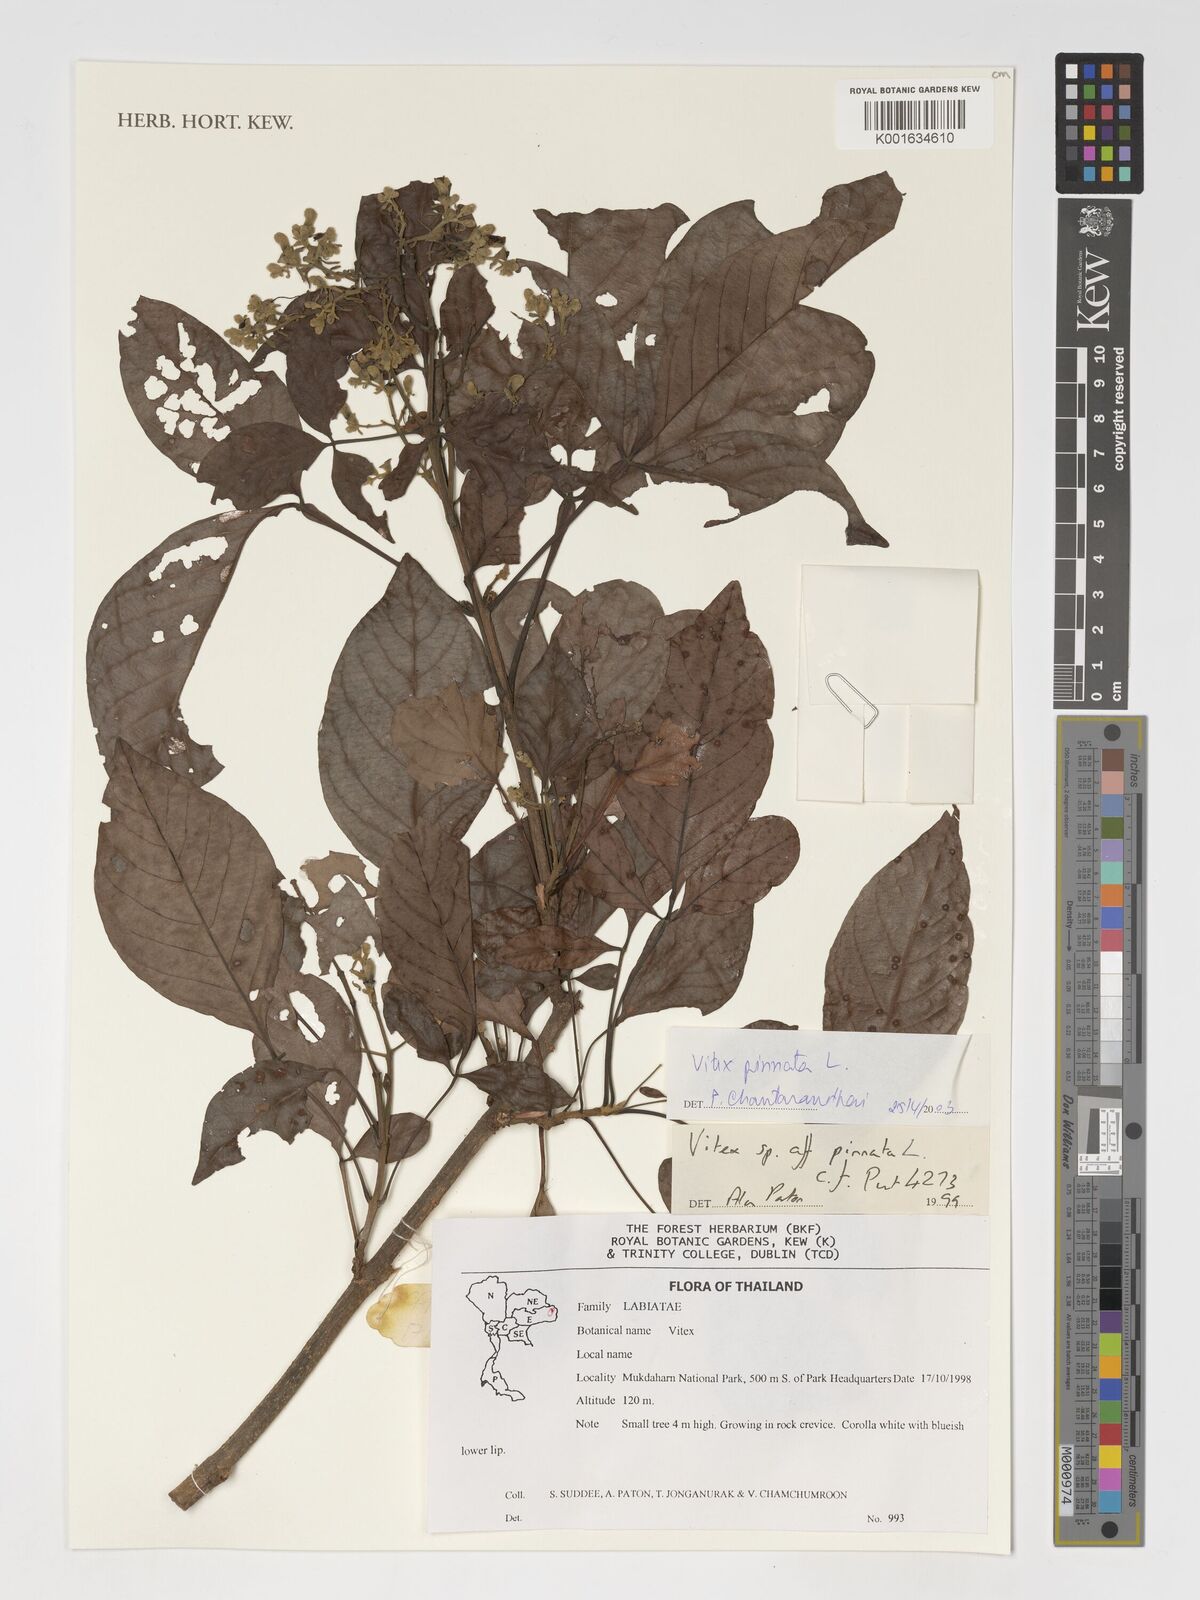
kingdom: Plantae
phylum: Tracheophyta
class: Magnoliopsida
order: Lamiales
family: Lamiaceae
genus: Vitex
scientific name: Vitex pinnata
